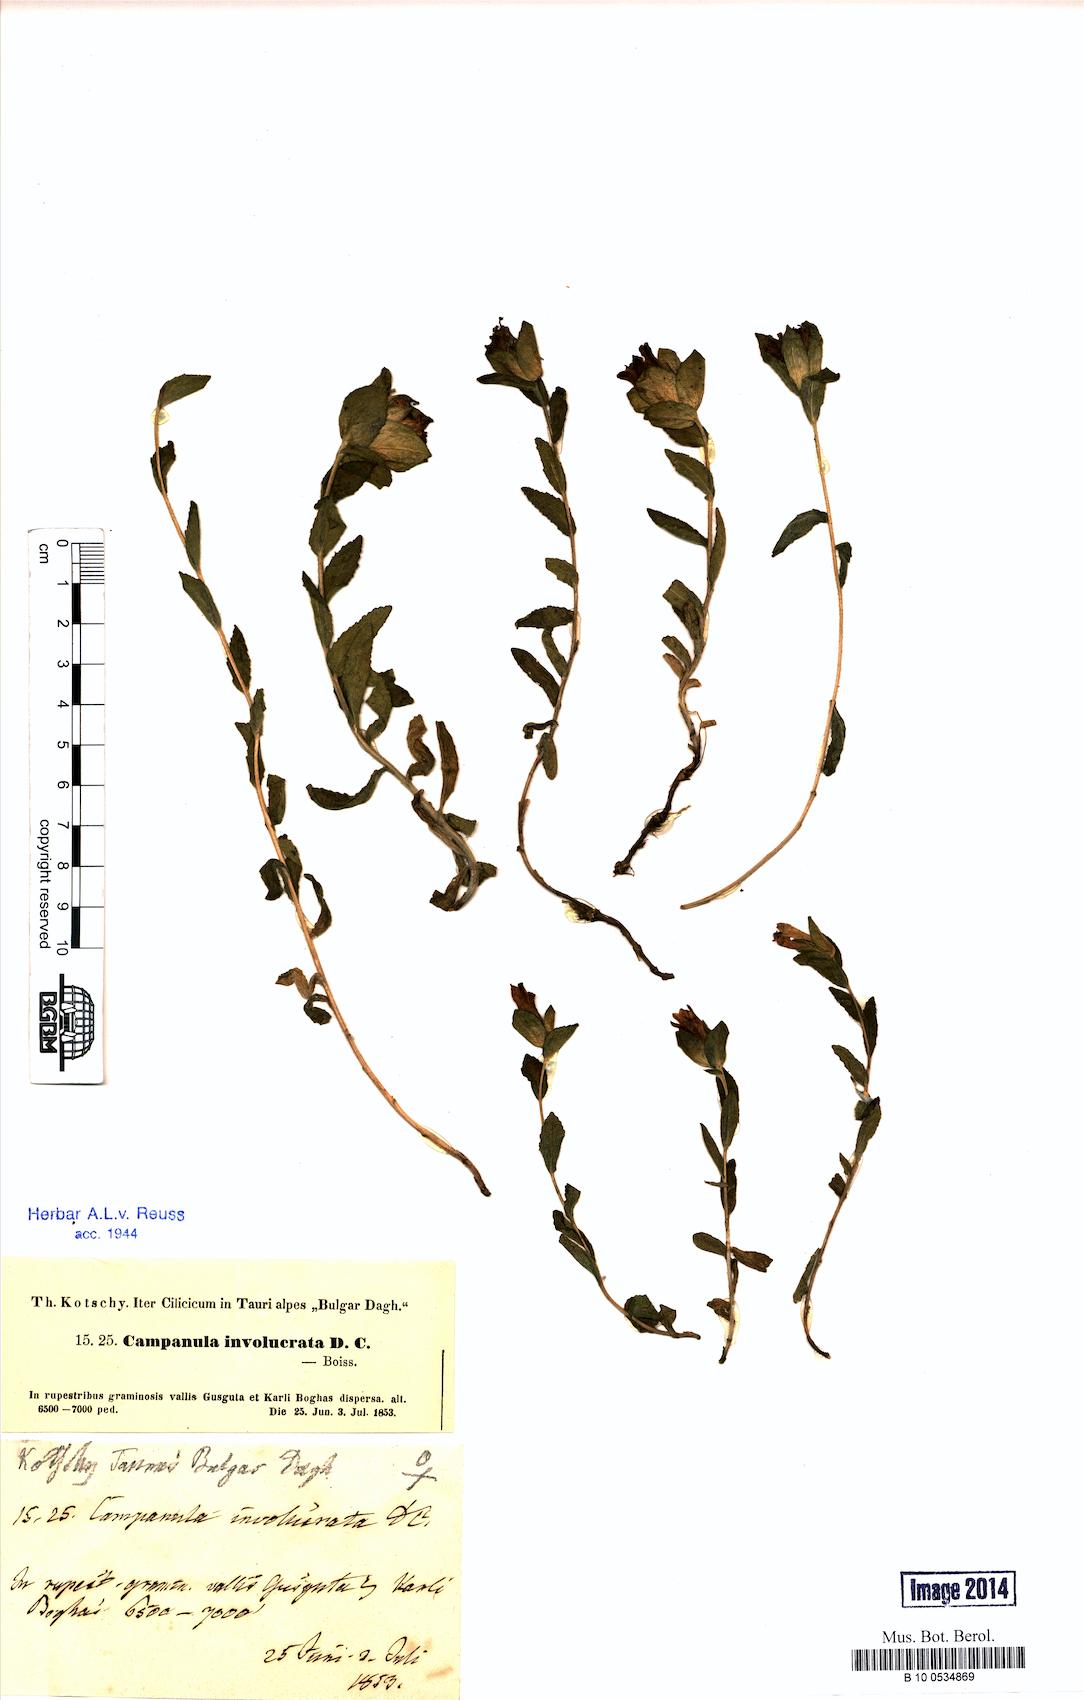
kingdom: Plantae
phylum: Tracheophyta
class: Magnoliopsida
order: Asterales
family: Campanulaceae
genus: Campanula
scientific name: Campanula involucrata
